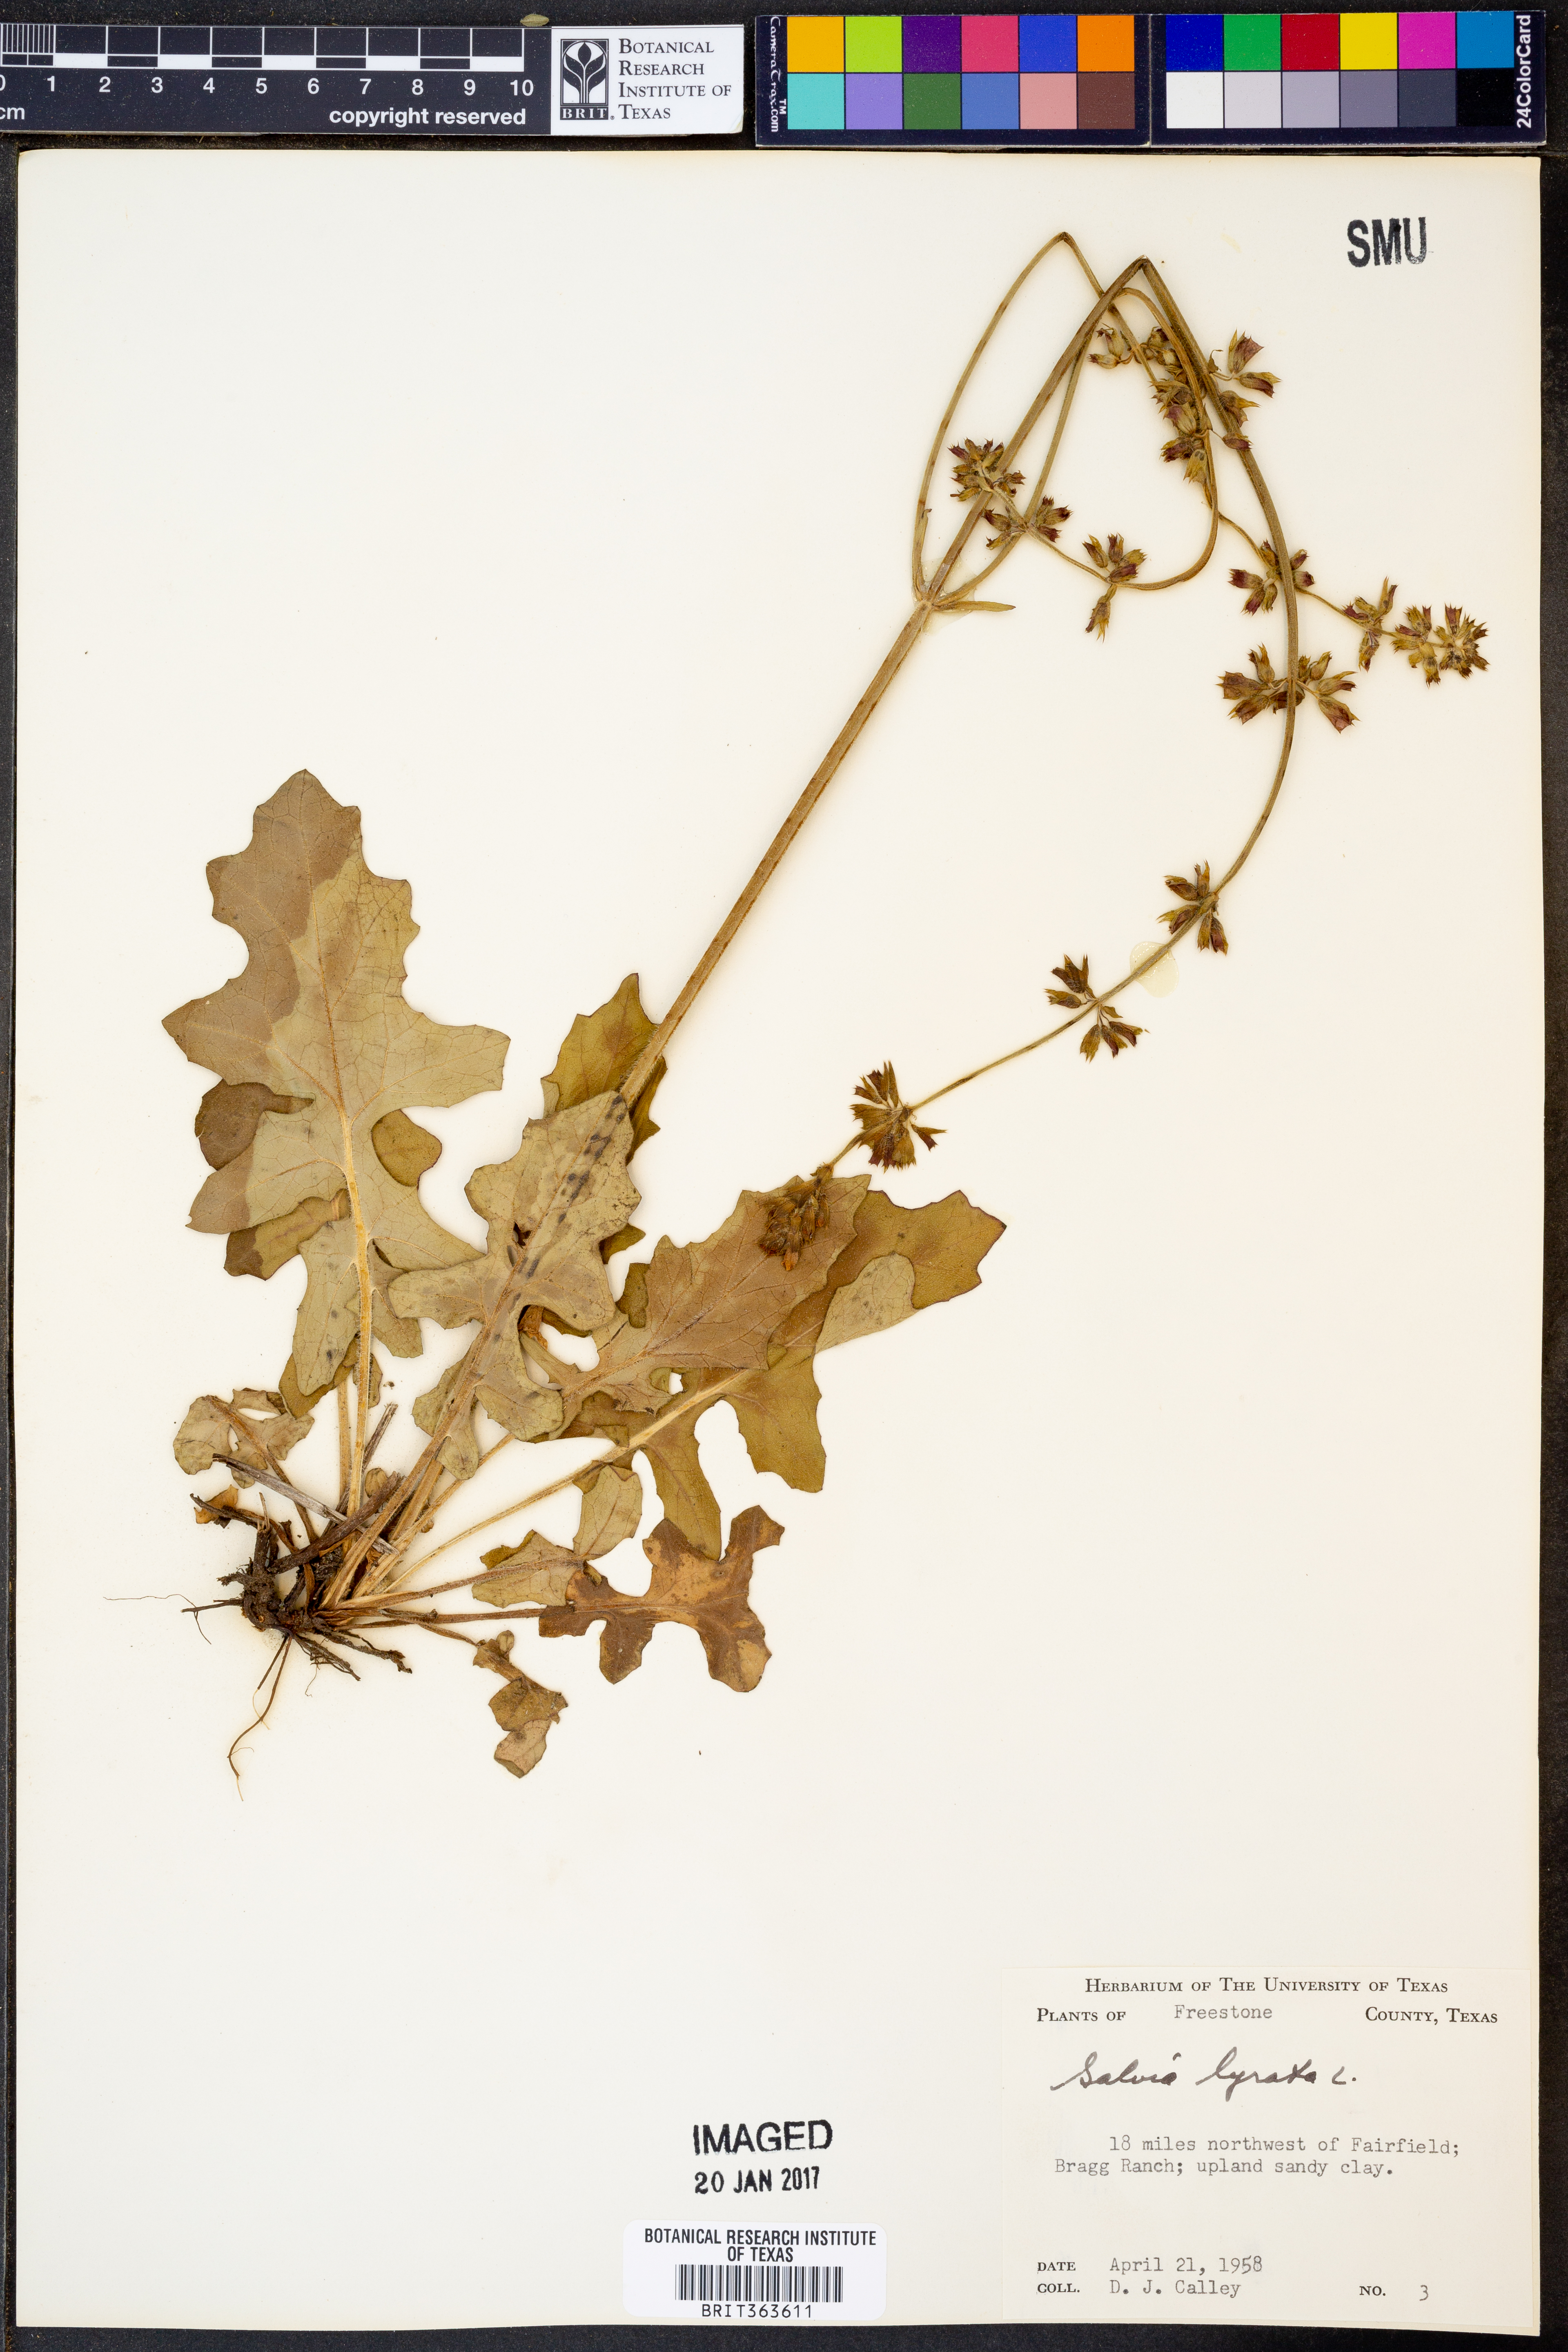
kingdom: Plantae
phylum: Tracheophyta
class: Magnoliopsida
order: Lamiales
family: Lamiaceae
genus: Salvia
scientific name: Salvia lyrata
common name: Cancerweed
